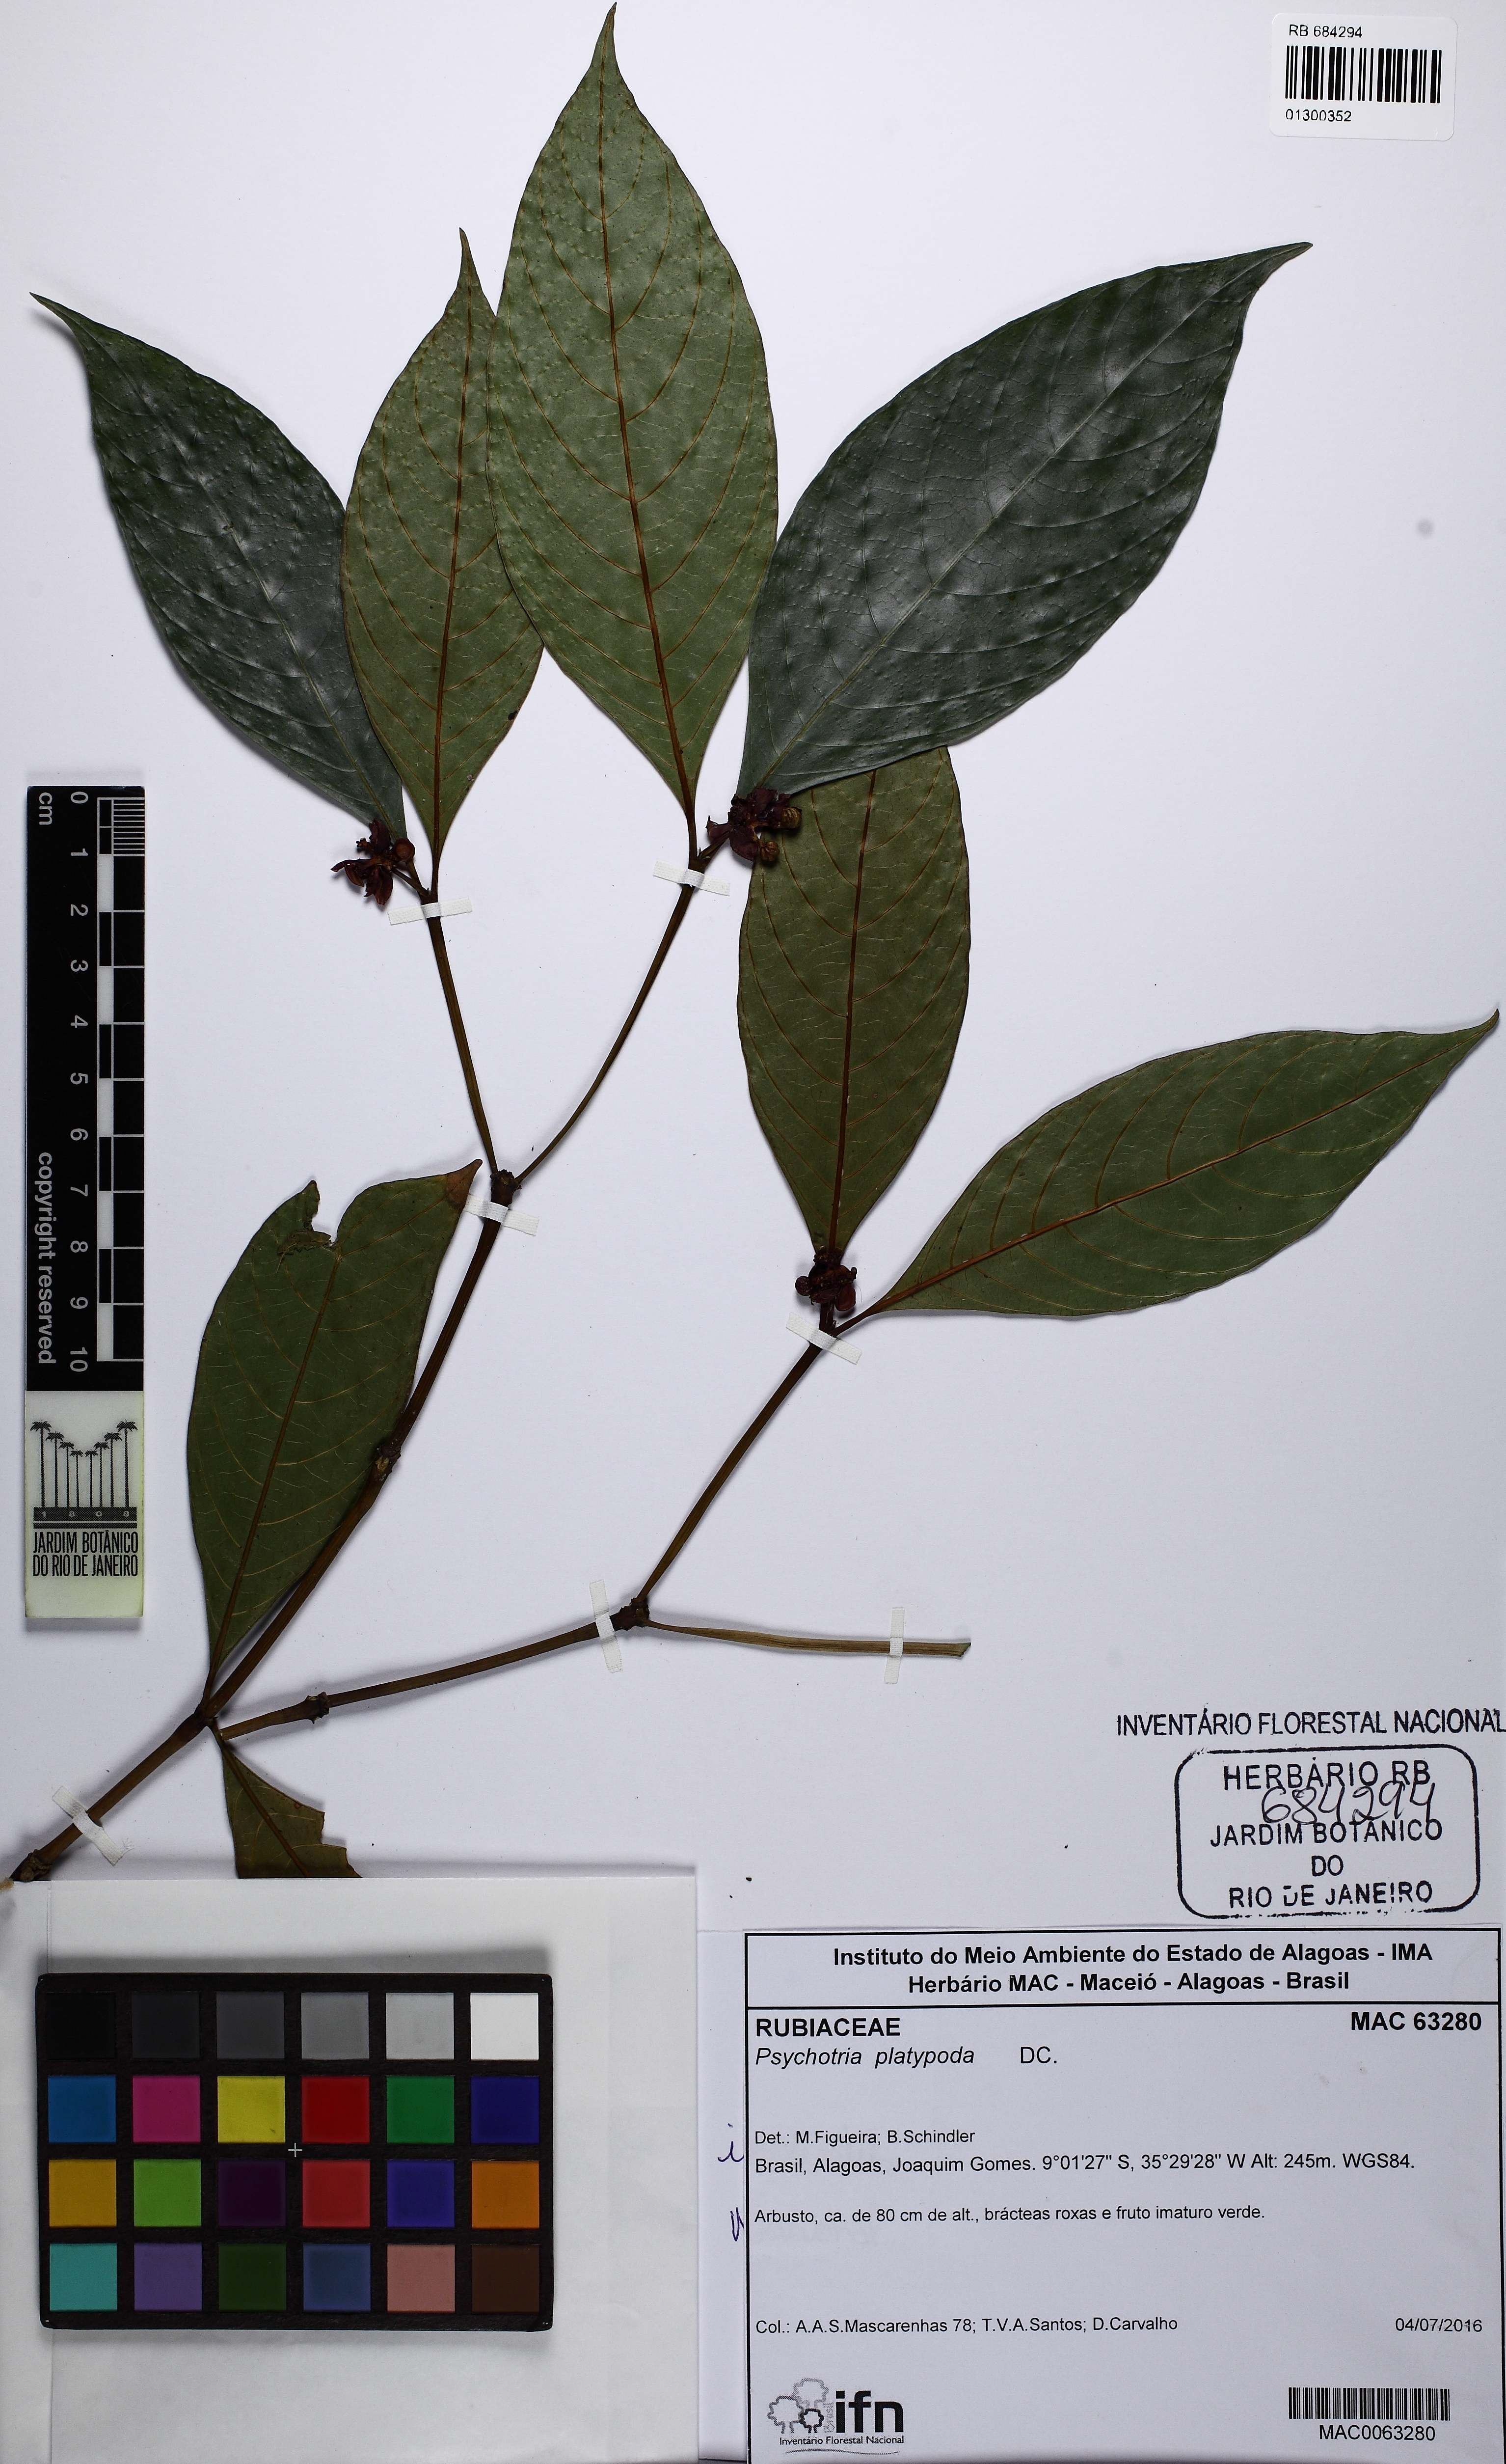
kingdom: Plantae
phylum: Tracheophyta
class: Magnoliopsida
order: Gentianales
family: Rubiaceae
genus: Palicourea
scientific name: Palicourea dichotoma
